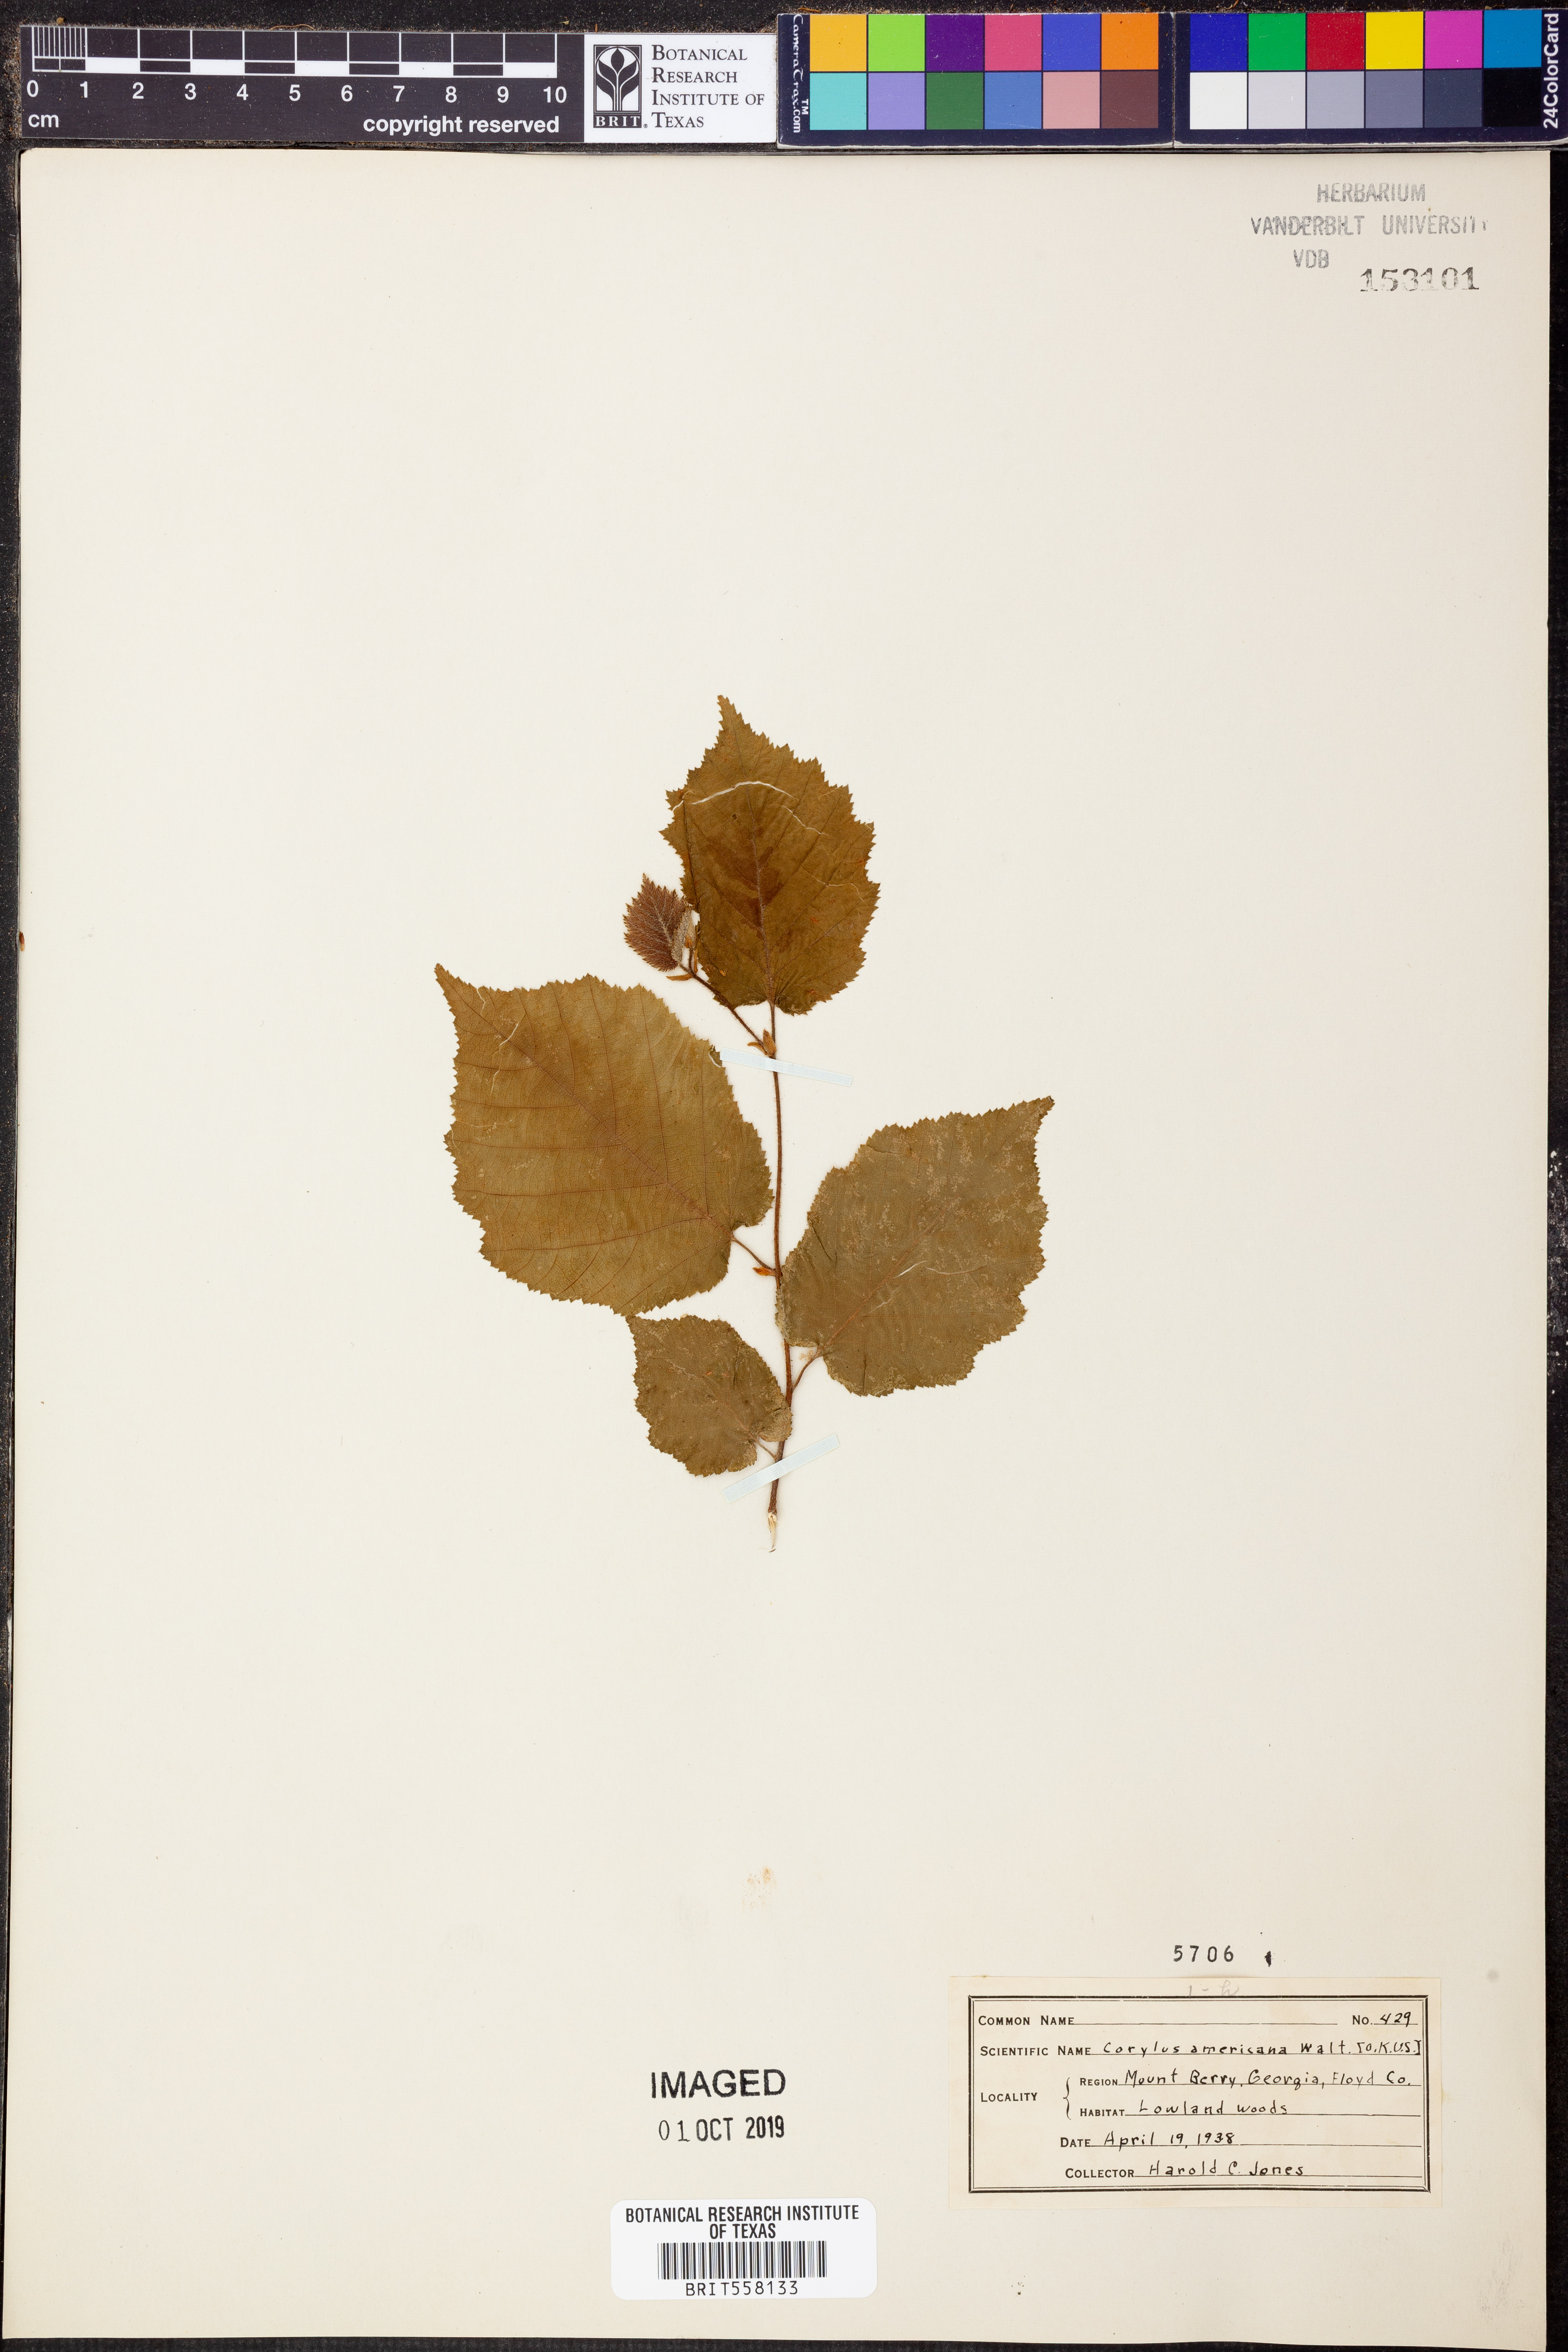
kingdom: Plantae
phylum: Tracheophyta
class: Magnoliopsida
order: Fagales
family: Betulaceae
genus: Corylus
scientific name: Corylus americana
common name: American hazel
